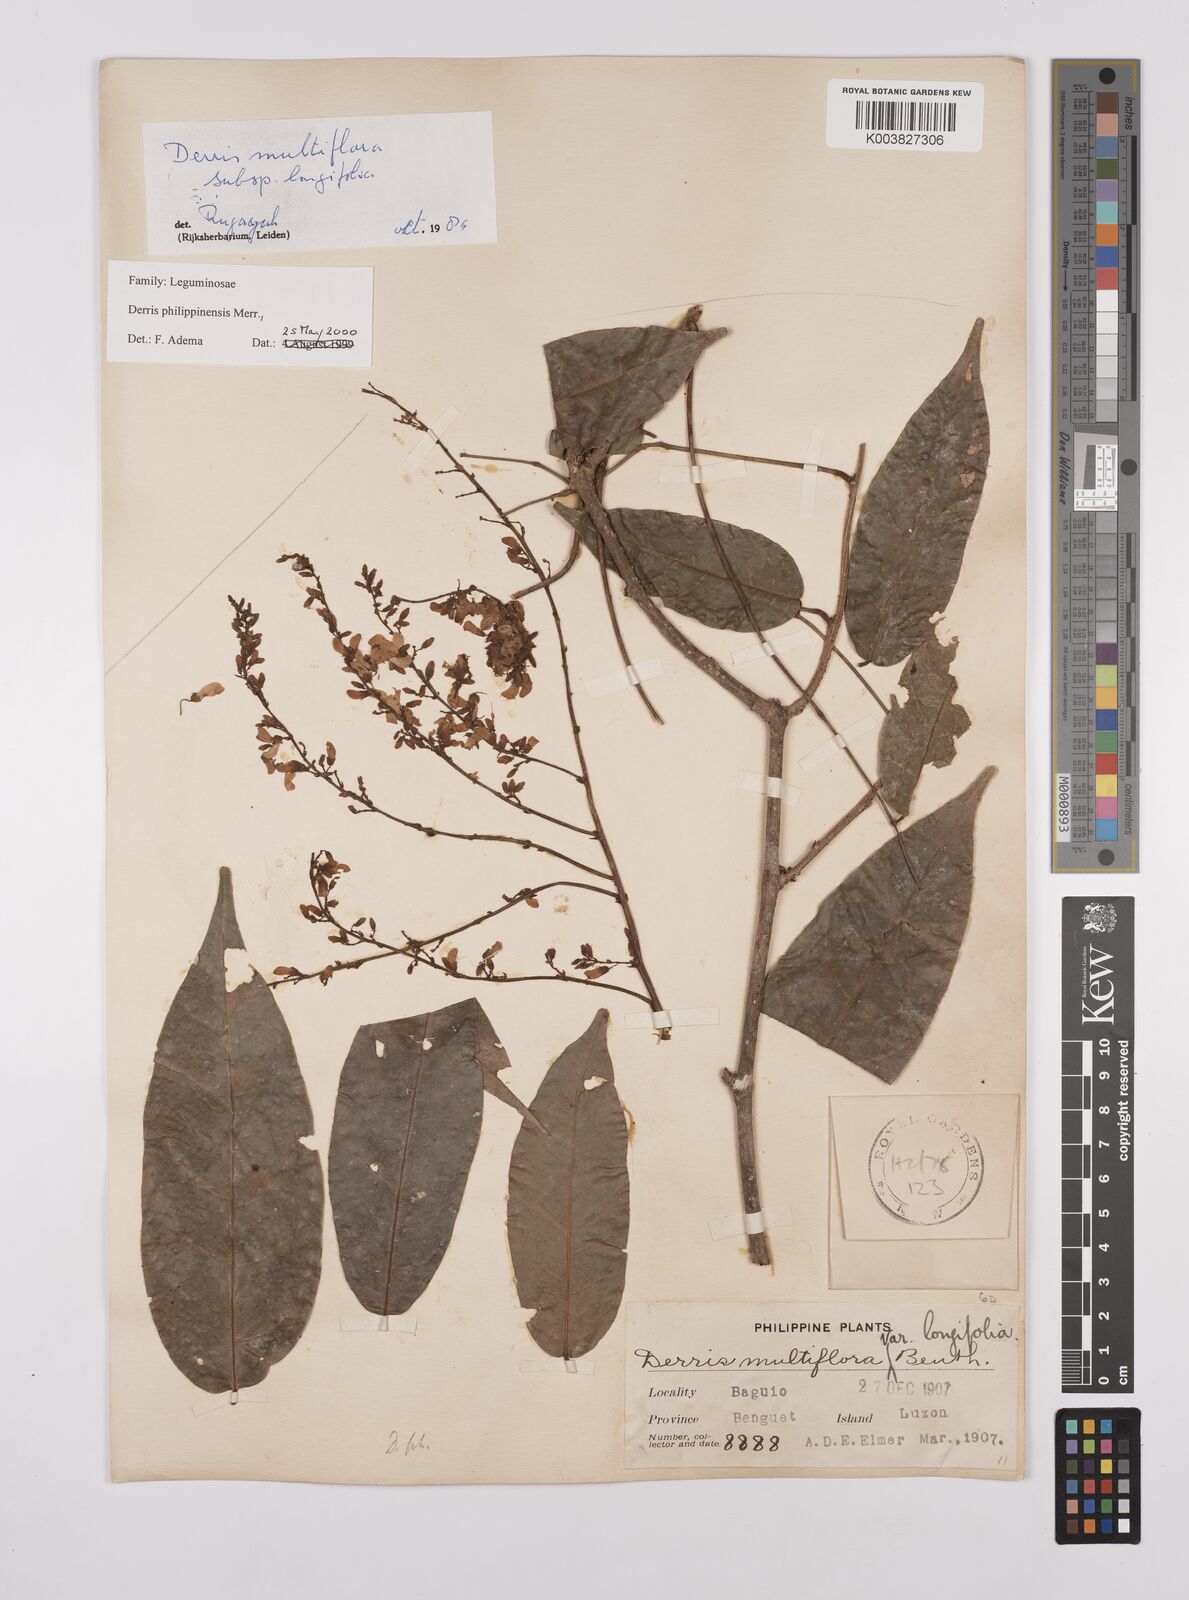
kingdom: Plantae
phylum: Tracheophyta
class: Magnoliopsida
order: Fabales
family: Fabaceae
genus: Brachypterum
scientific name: Brachypterum philippinense
